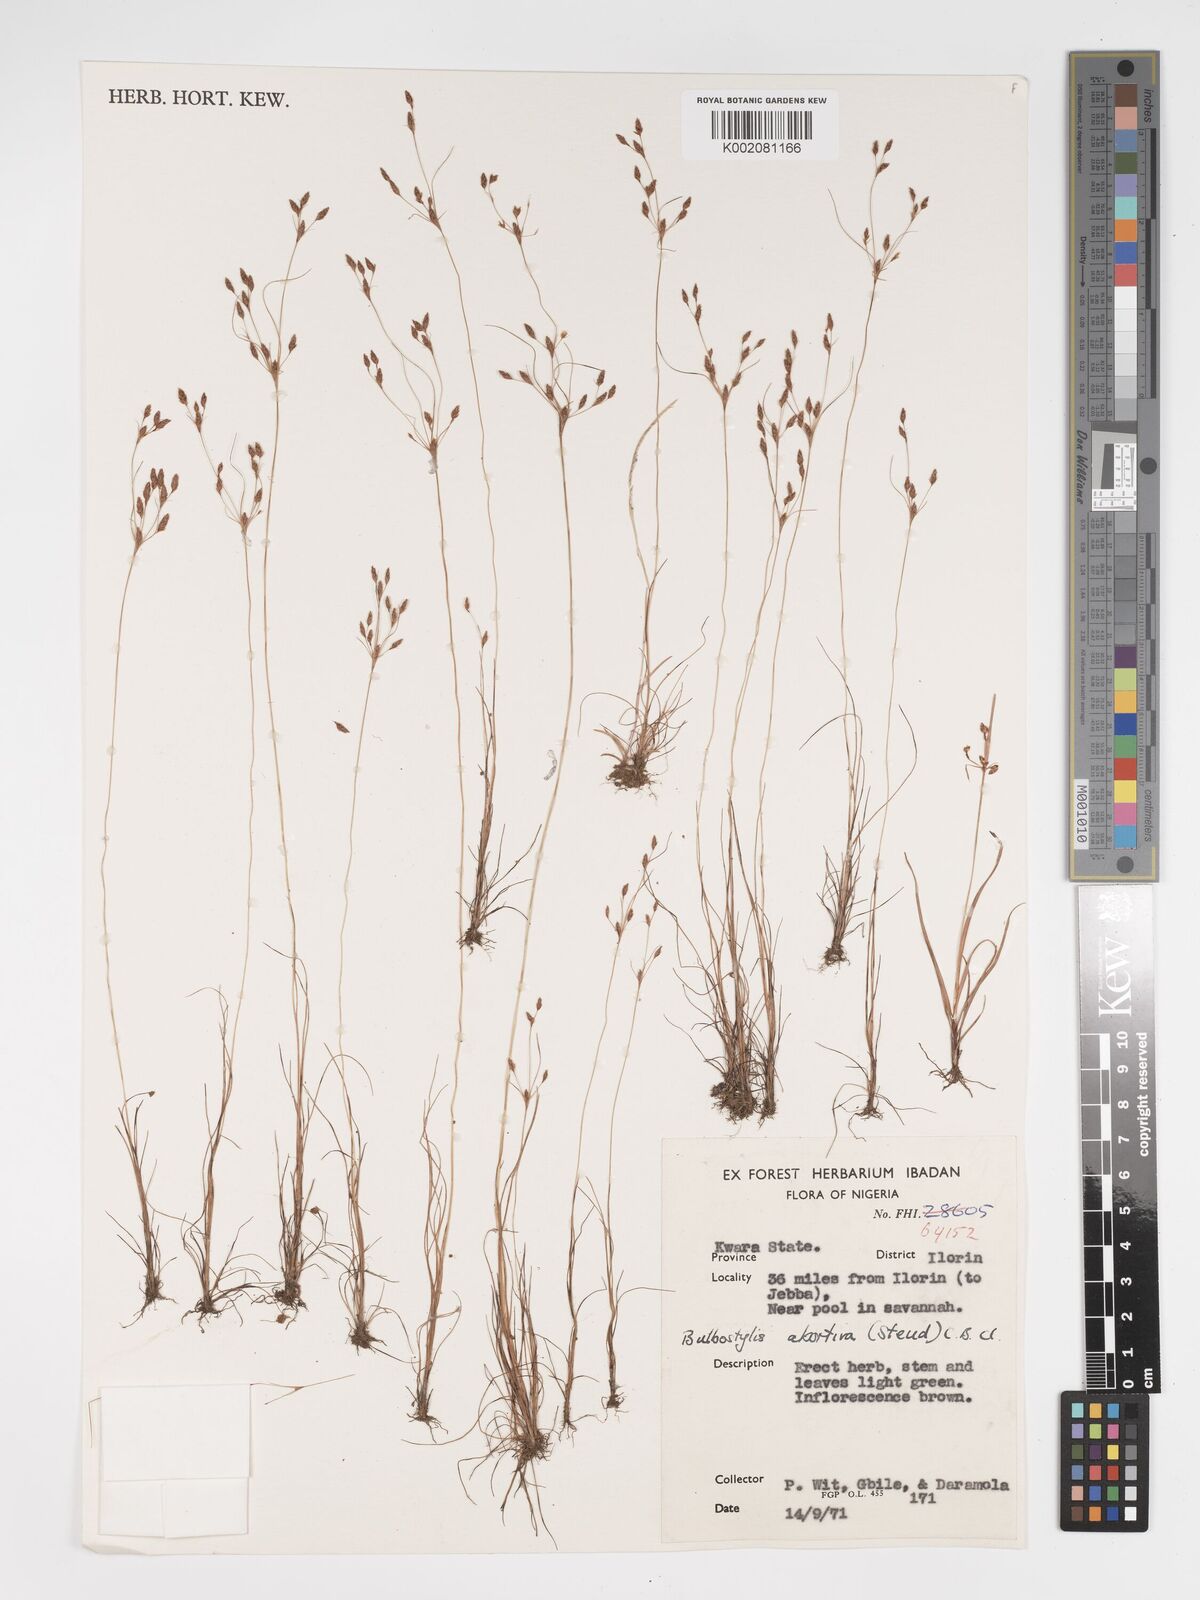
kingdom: Plantae
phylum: Tracheophyta
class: Liliopsida
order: Poales
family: Cyperaceae
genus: Bulbostylis
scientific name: Bulbostylis abortiva
